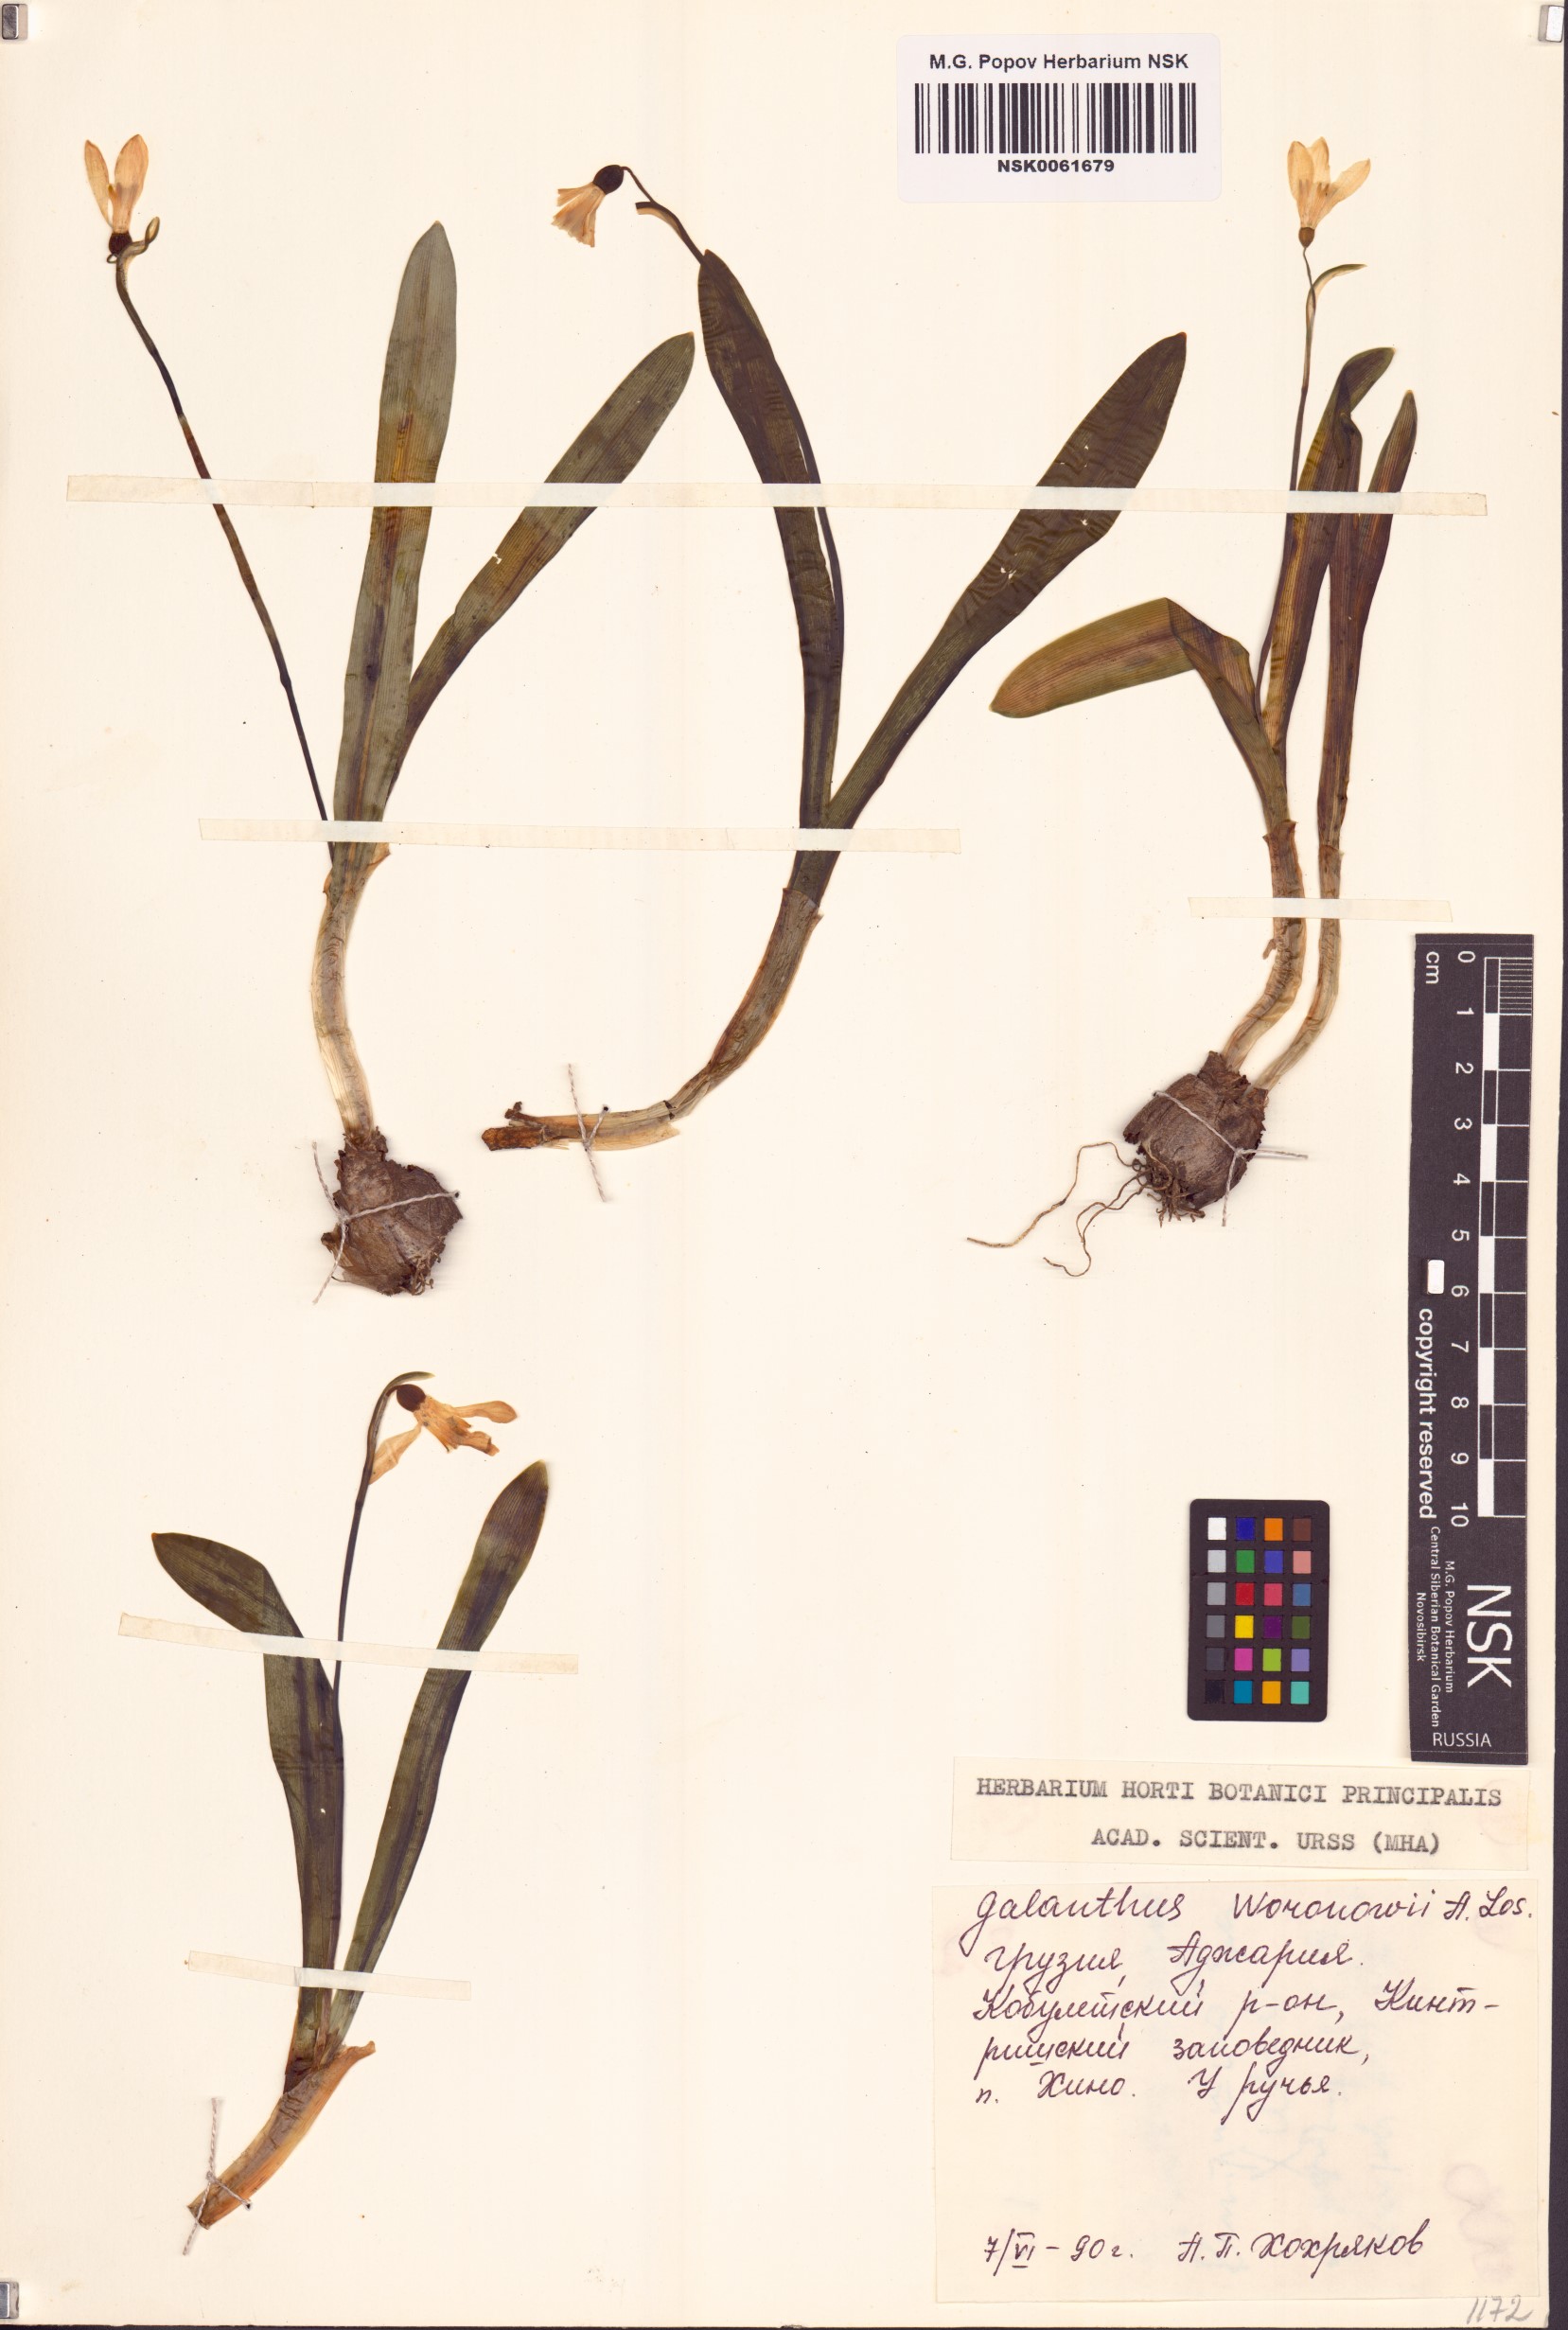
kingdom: Plantae
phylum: Tracheophyta
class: Liliopsida
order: Asparagales
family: Amaryllidaceae
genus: Galanthus
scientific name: Galanthus woronowii
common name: Green snowdrop
